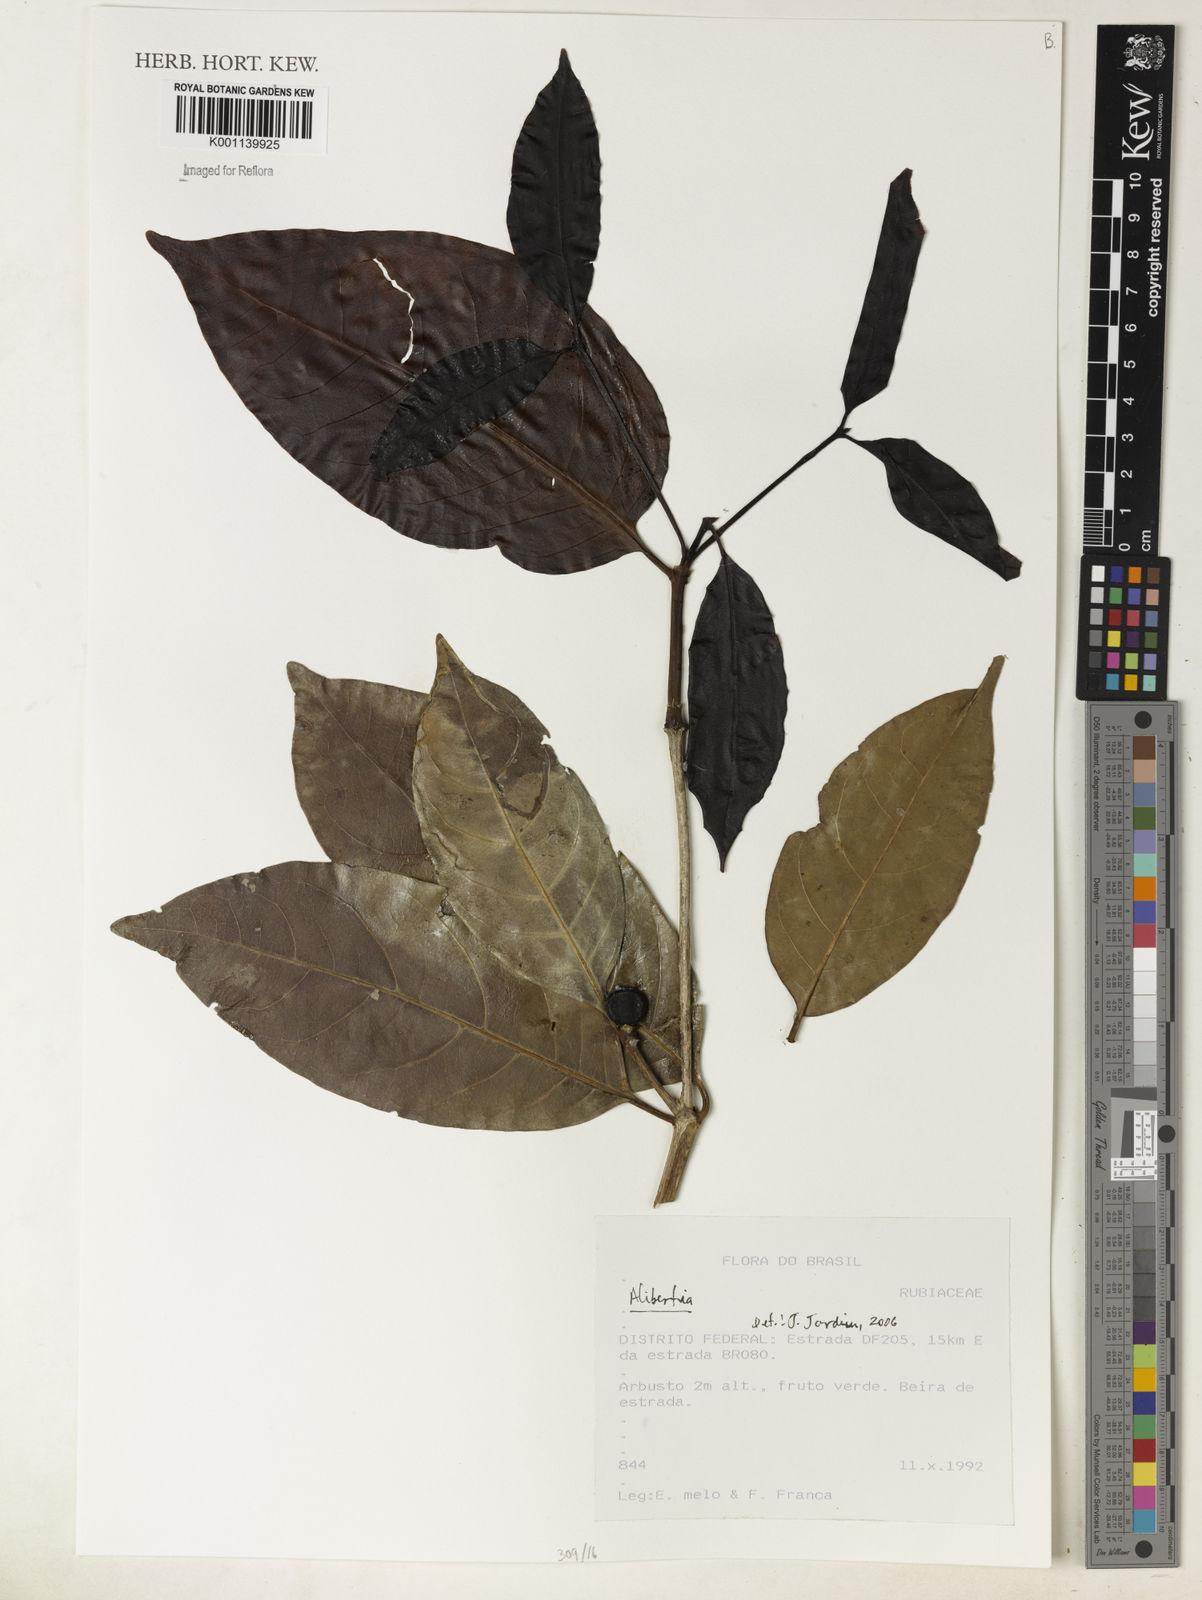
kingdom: Plantae
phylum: Tracheophyta
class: Magnoliopsida
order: Gentianales
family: Rubiaceae
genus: Alibertia
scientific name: Alibertia
